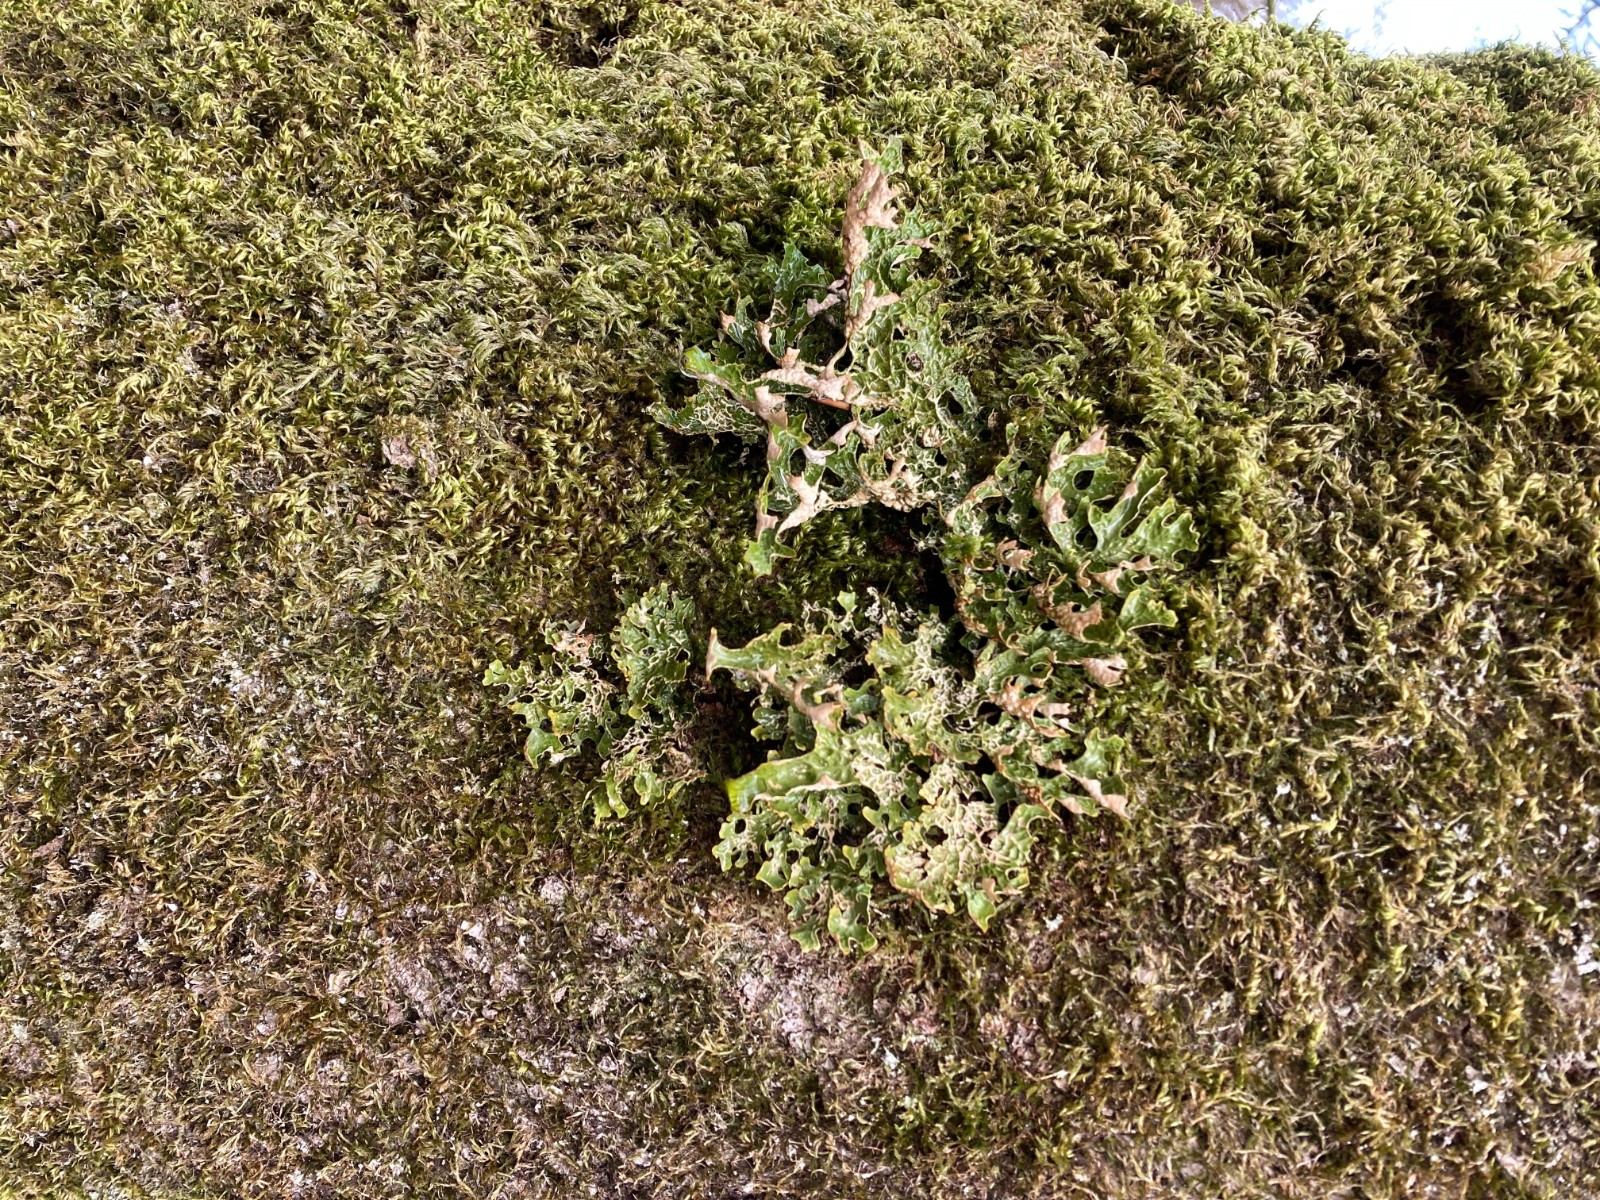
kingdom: Fungi
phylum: Ascomycota
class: Lecanoromycetes
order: Peltigerales
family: Lobariaceae
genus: Lobaria
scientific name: Lobaria pulmonaria
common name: almindelig lungelav
